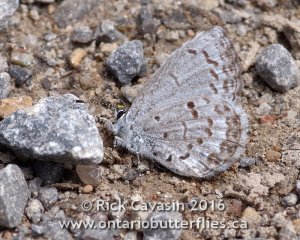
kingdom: Animalia
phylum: Arthropoda
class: Insecta
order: Lepidoptera
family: Lycaenidae
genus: Celastrina
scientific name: Celastrina lucia
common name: Northern Spring Azure
